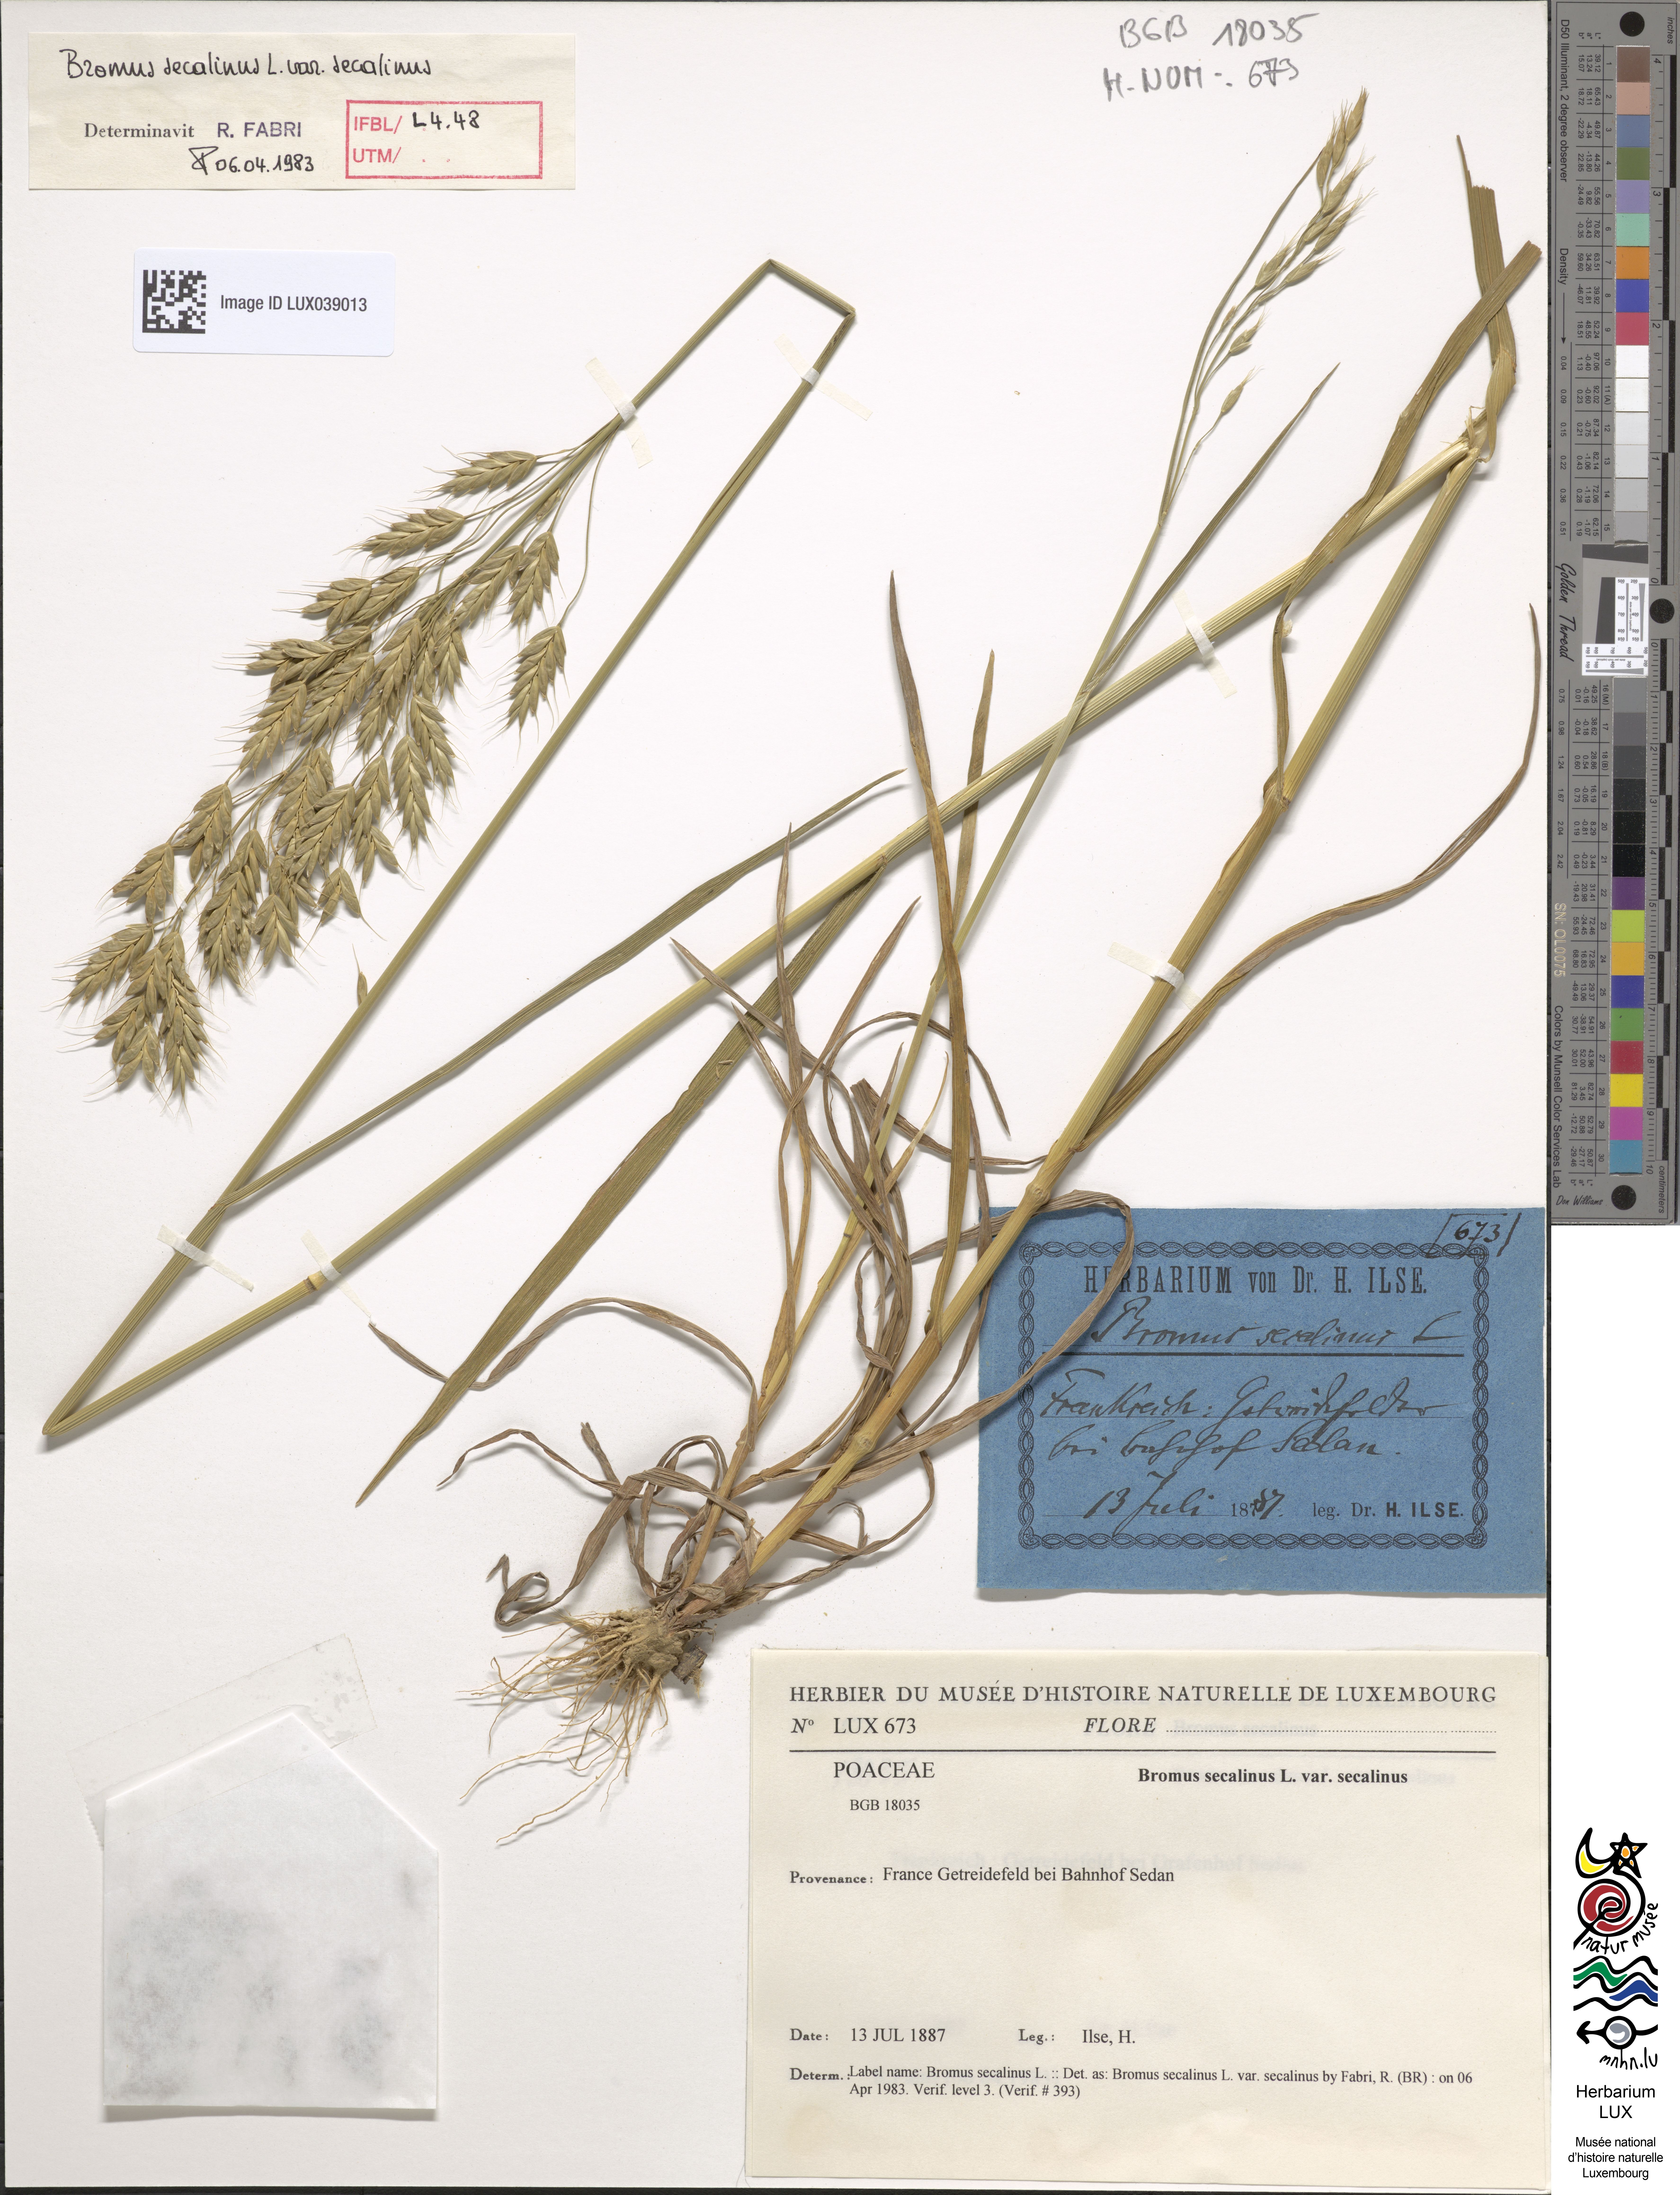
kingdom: Plantae
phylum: Tracheophyta
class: Liliopsida
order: Poales
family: Poaceae
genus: Bromus
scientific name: Bromus secalinus
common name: Rye brome
